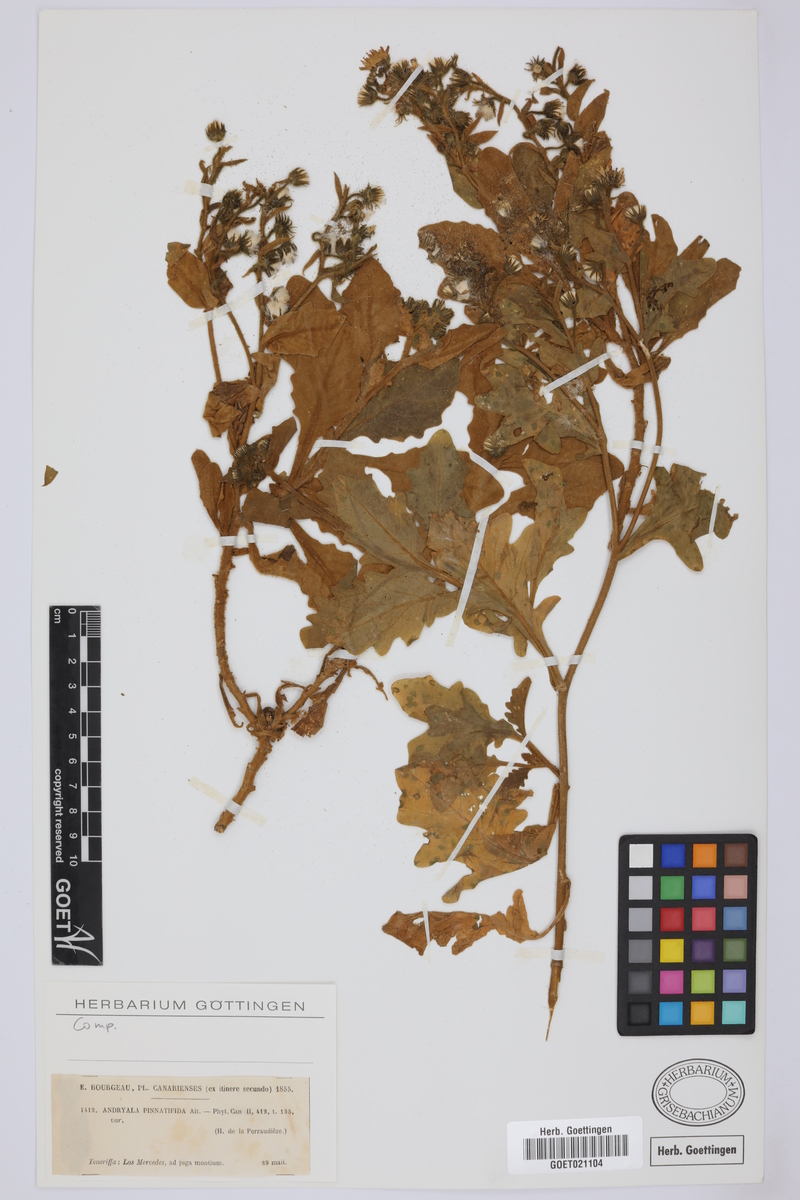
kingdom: Plantae
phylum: Tracheophyta
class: Magnoliopsida
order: Asterales
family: Asteraceae
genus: Andryala
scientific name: Andryala pinnatifida
